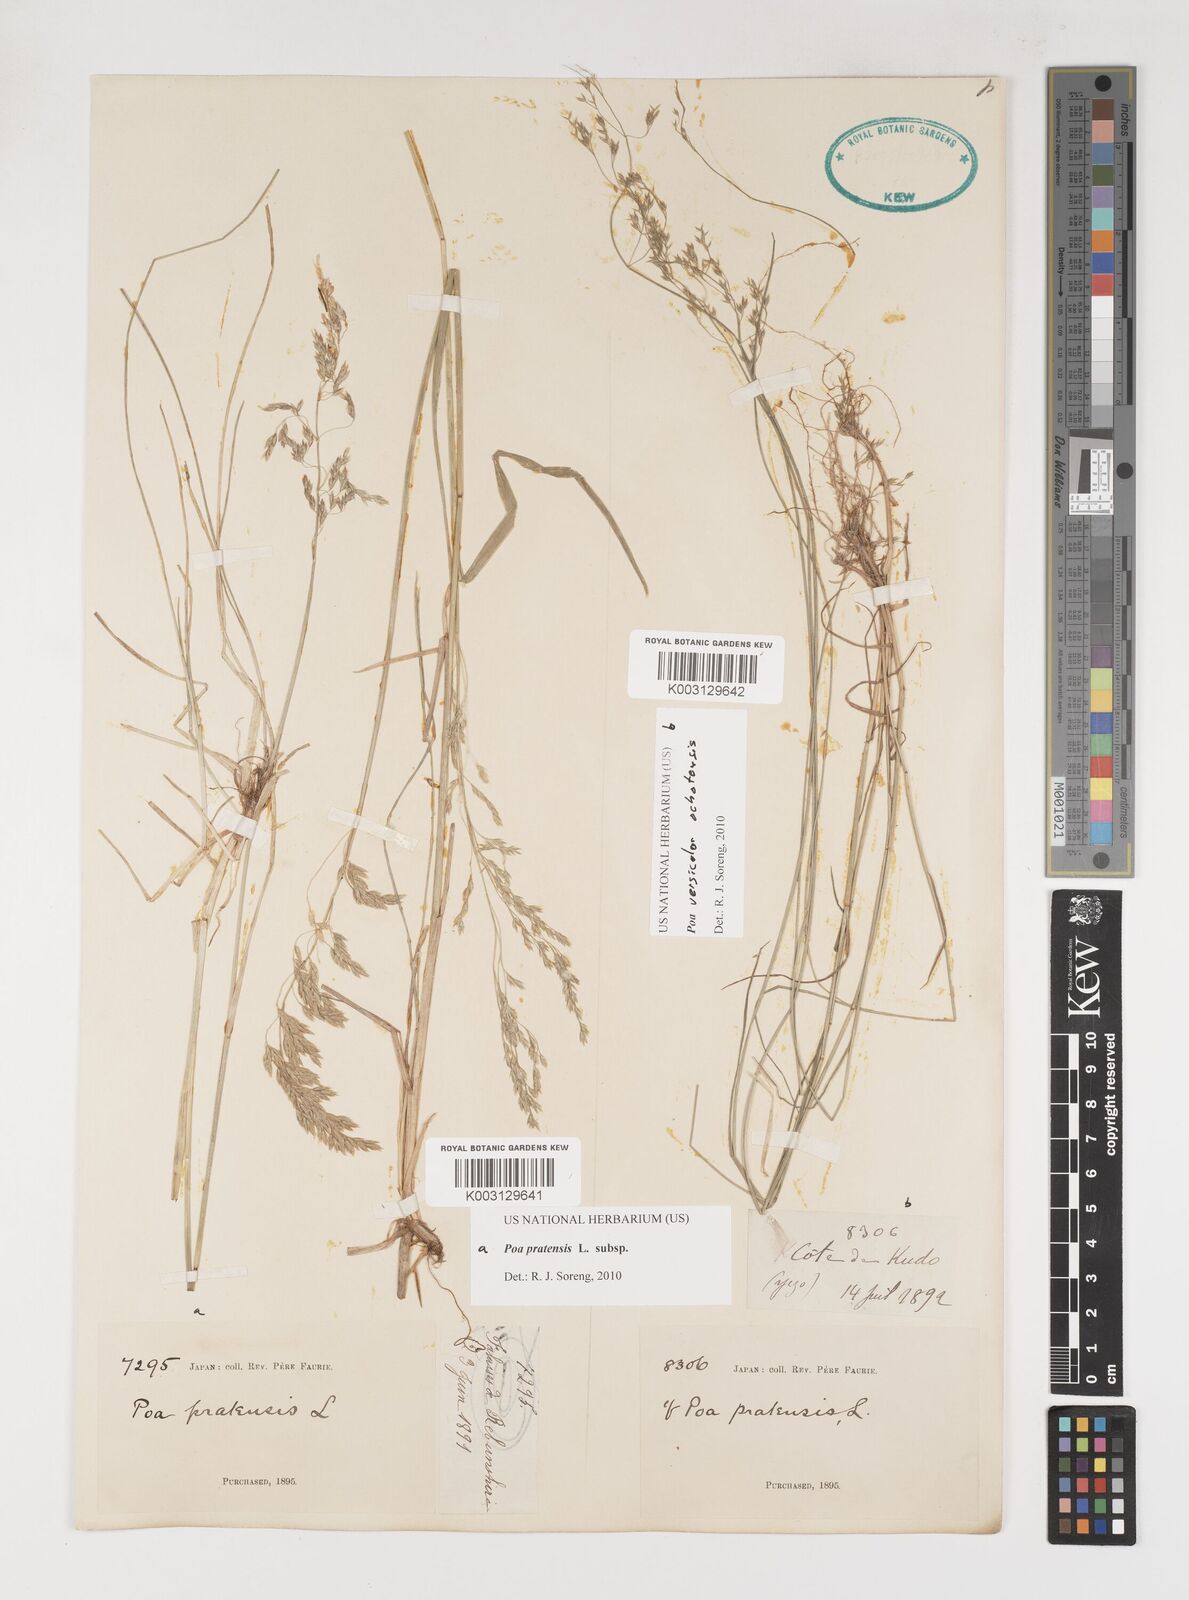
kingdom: Plantae
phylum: Tracheophyta
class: Liliopsida
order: Poales
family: Poaceae
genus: Poa
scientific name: Poa angustifolia
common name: Narrow-leaved meadow-grass
